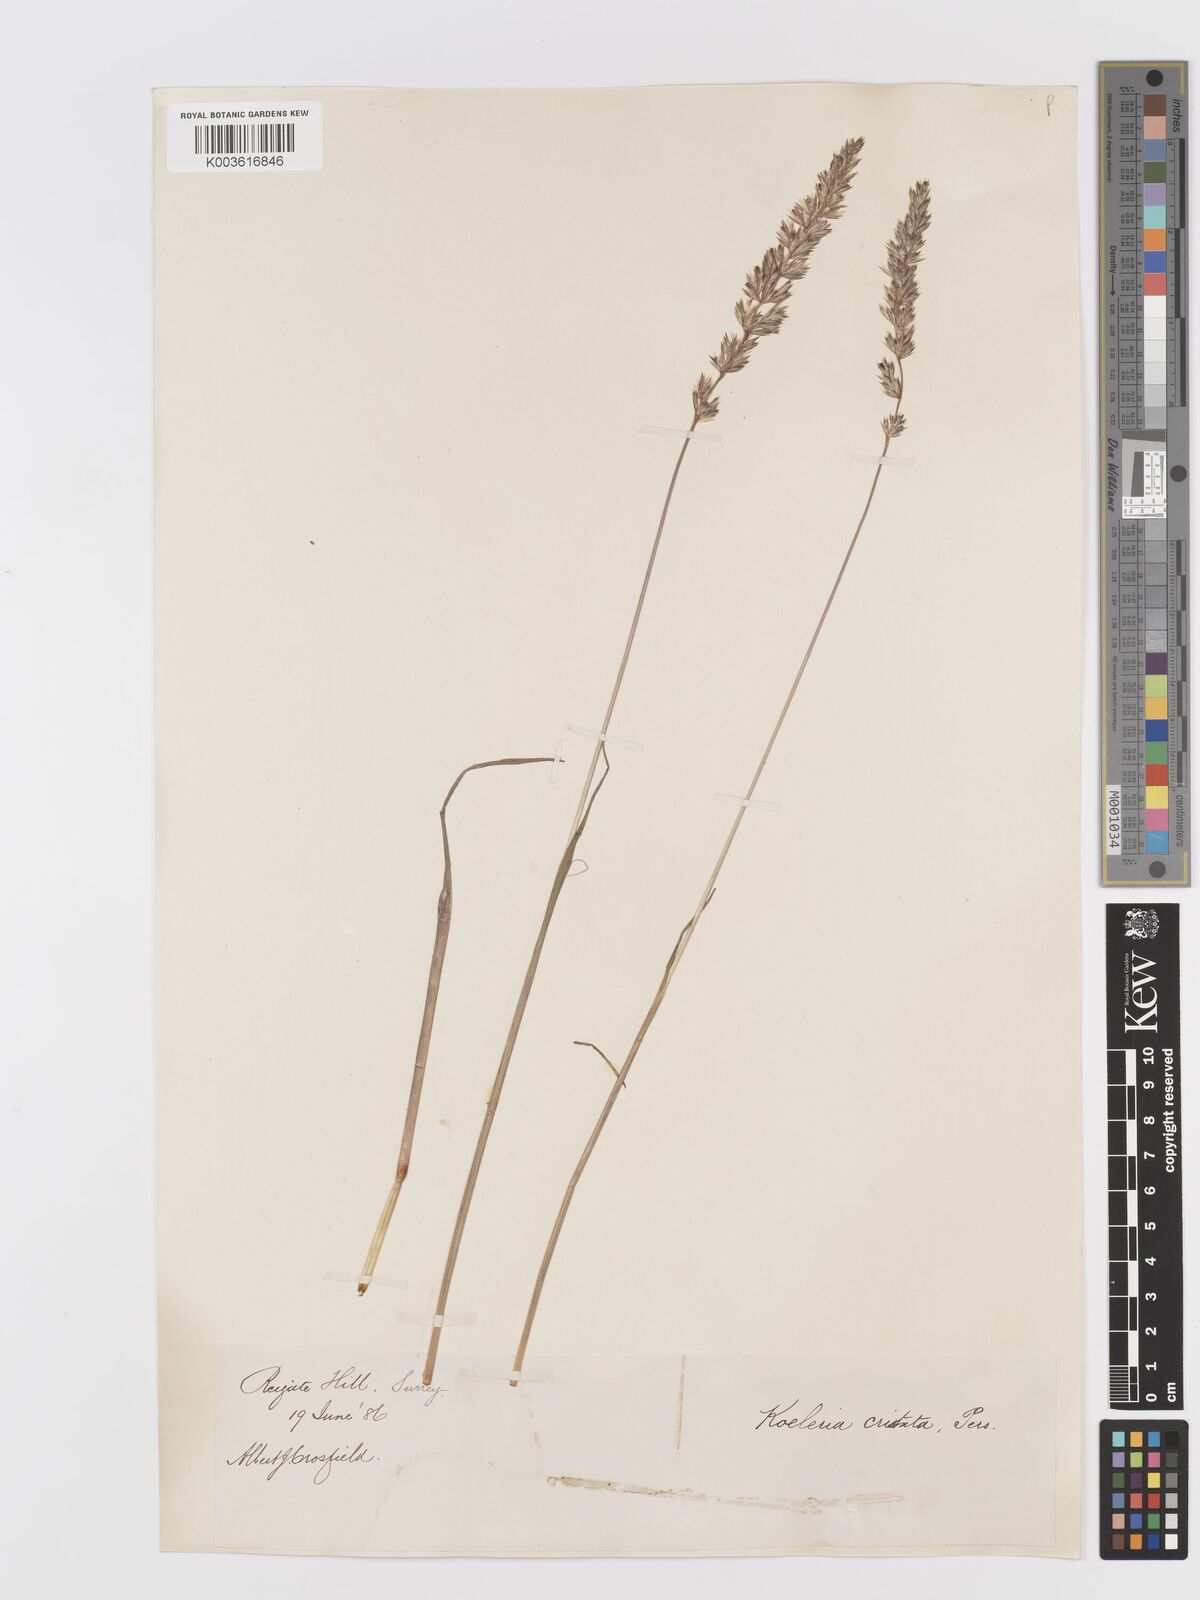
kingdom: Plantae
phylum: Tracheophyta
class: Liliopsida
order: Poales
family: Poaceae
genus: Koeleria
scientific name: Koeleria macrantha
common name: Crested hair-grass
